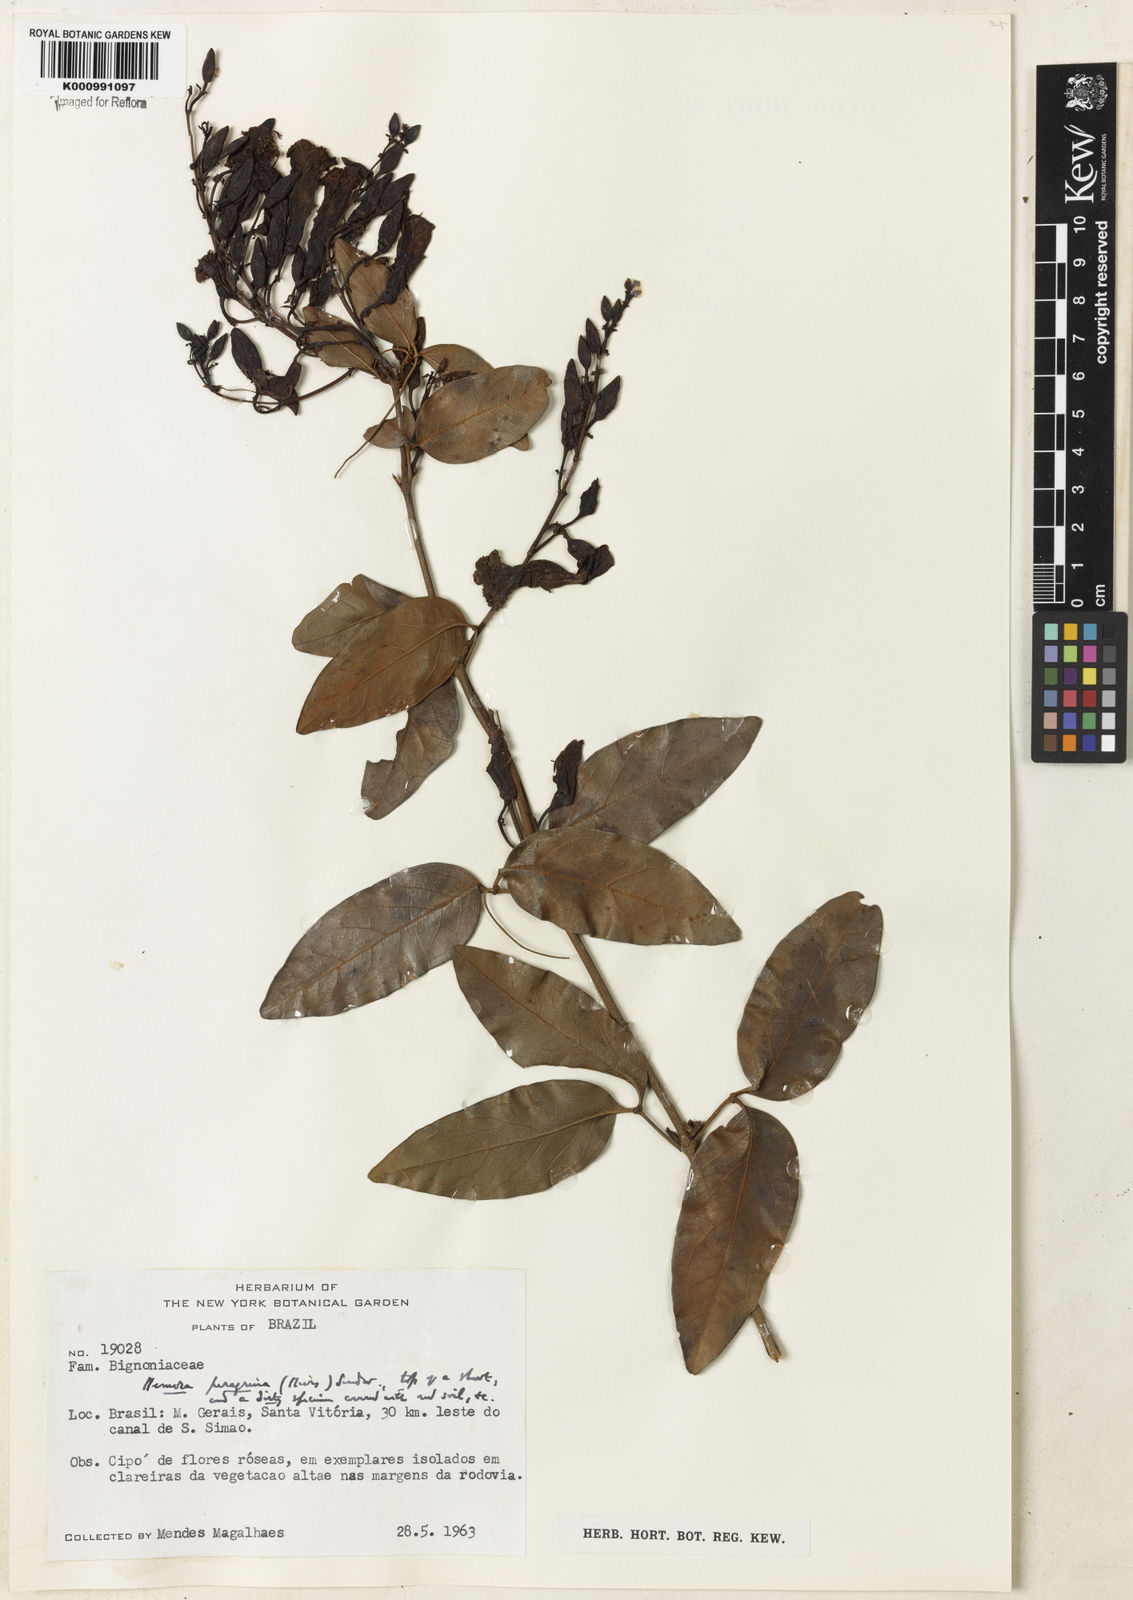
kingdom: Plantae
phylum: Tracheophyta
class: Magnoliopsida
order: Lamiales
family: Bignoniaceae
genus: Adenocalymma
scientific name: Adenocalymma peregrinum
